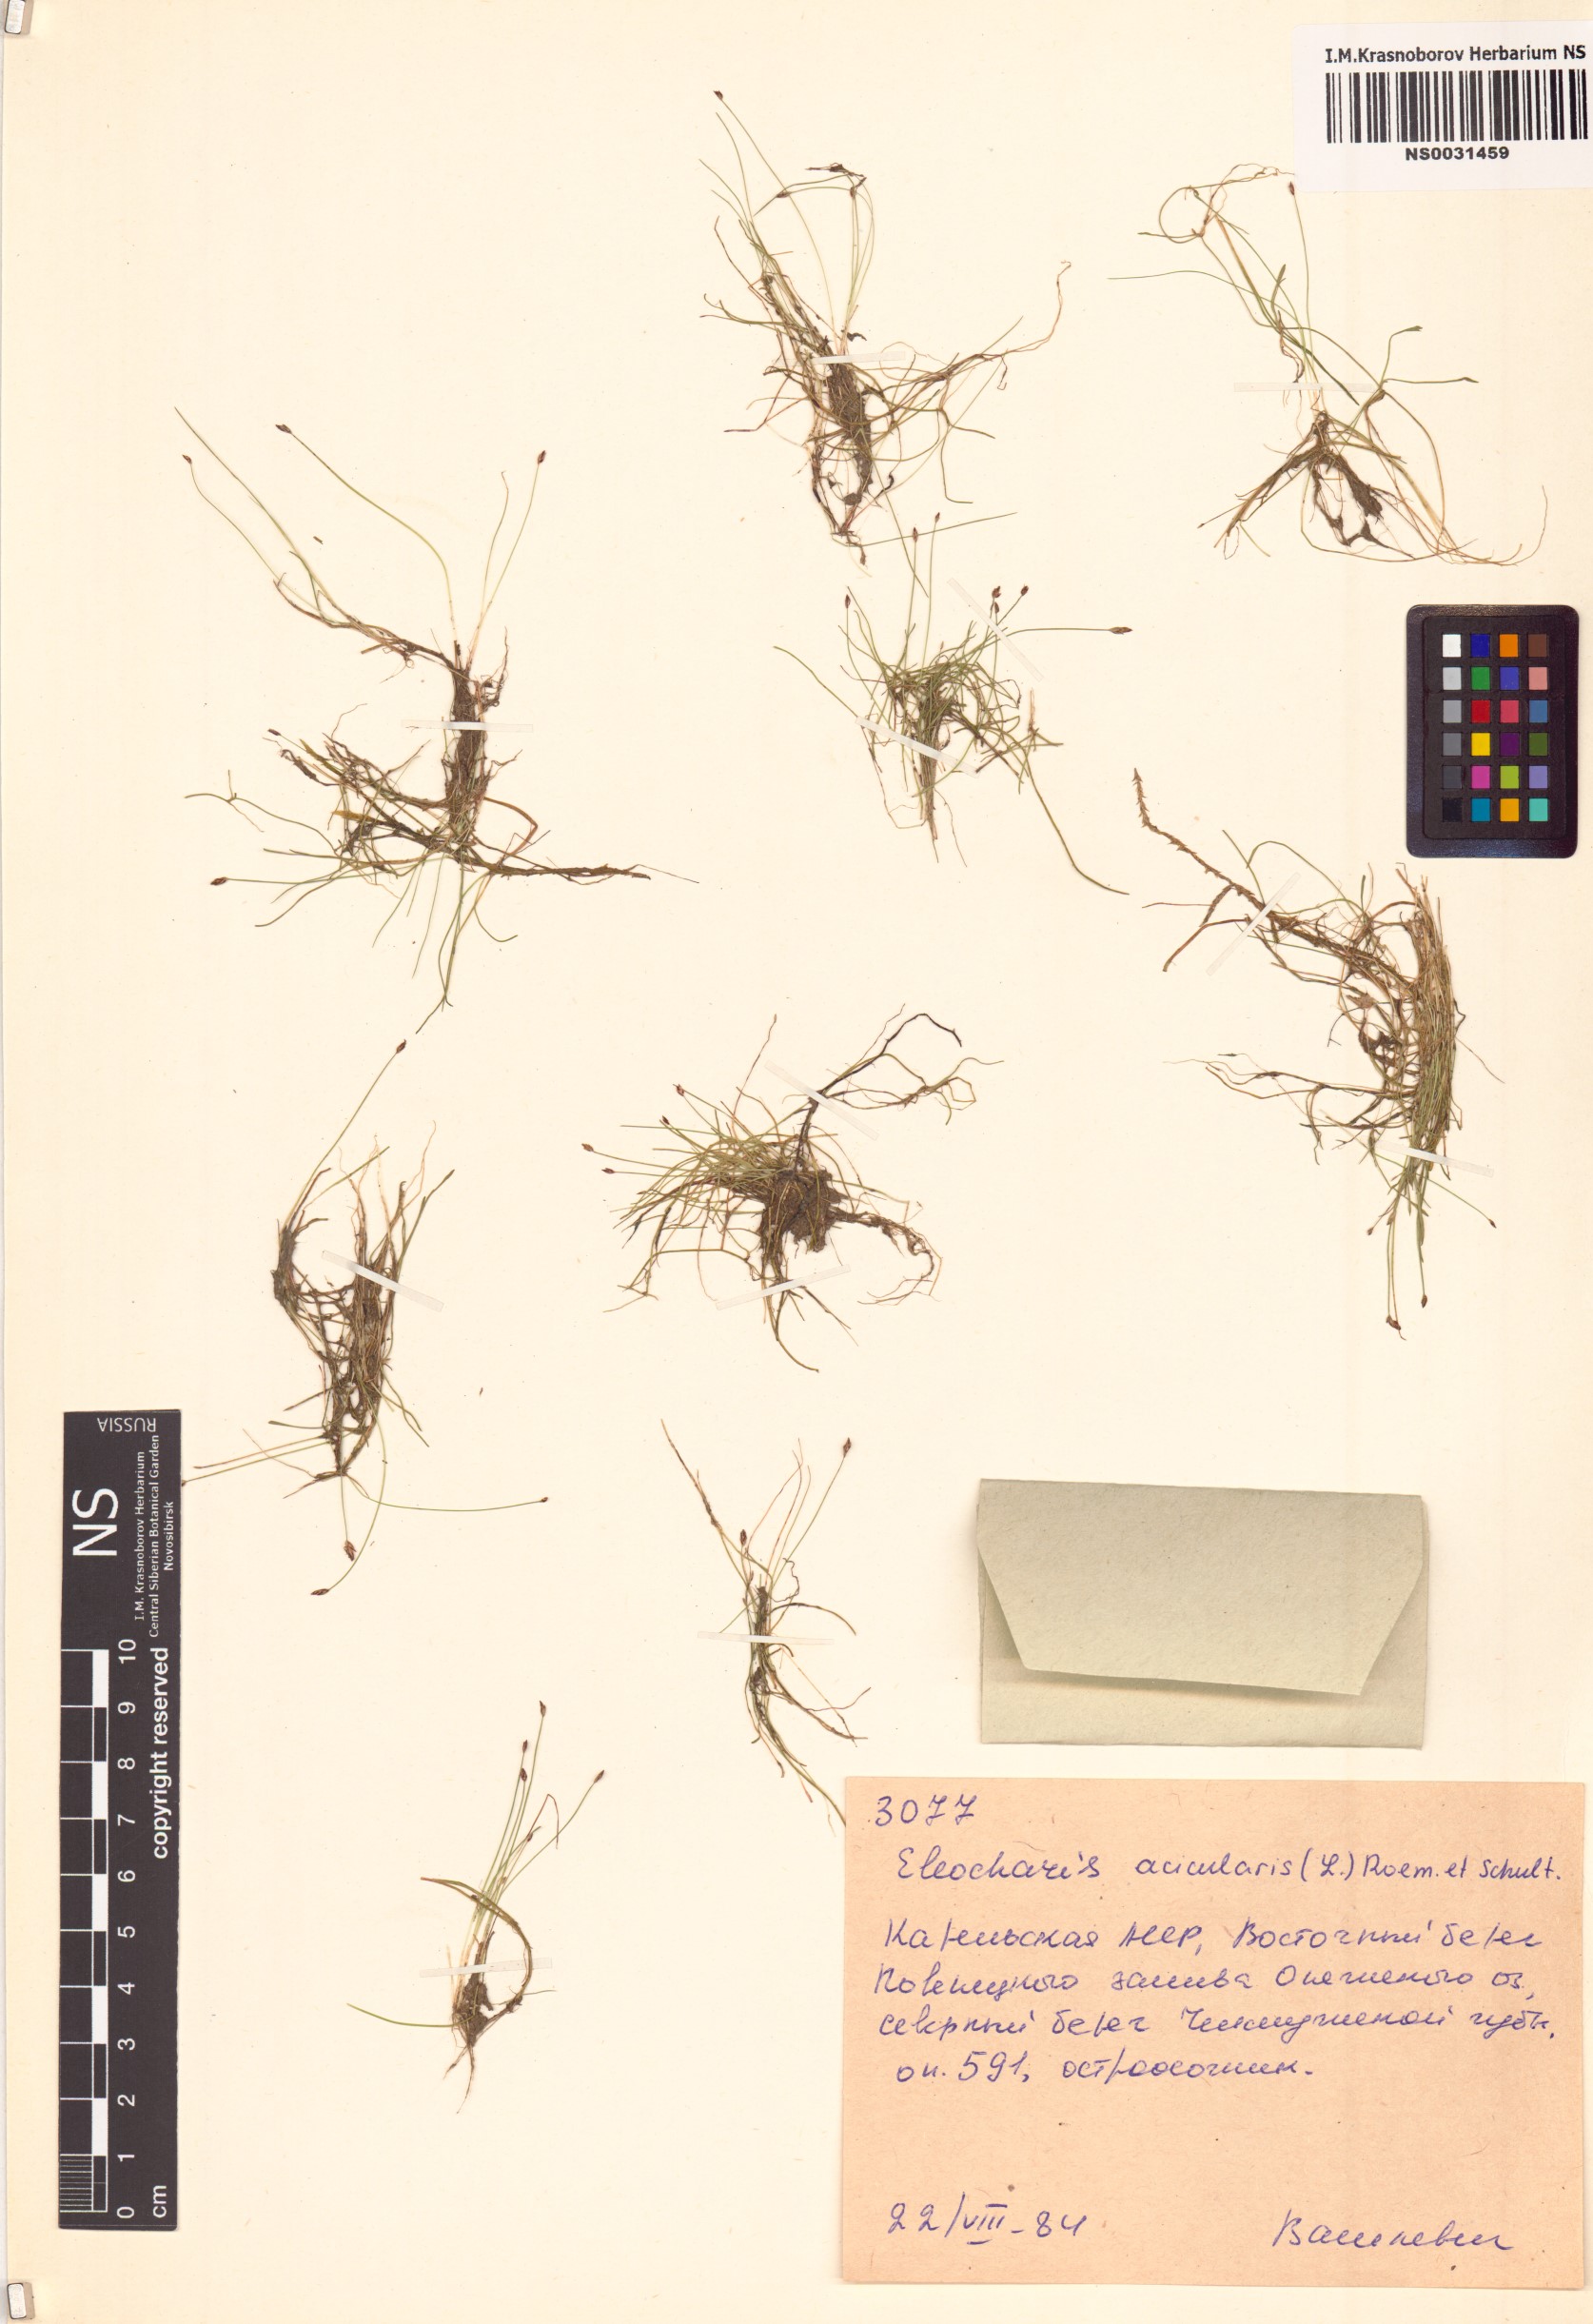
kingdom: Plantae
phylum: Tracheophyta
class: Liliopsida
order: Poales
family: Cyperaceae
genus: Eleocharis
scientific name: Eleocharis acicularis
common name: Needle spike-rush
